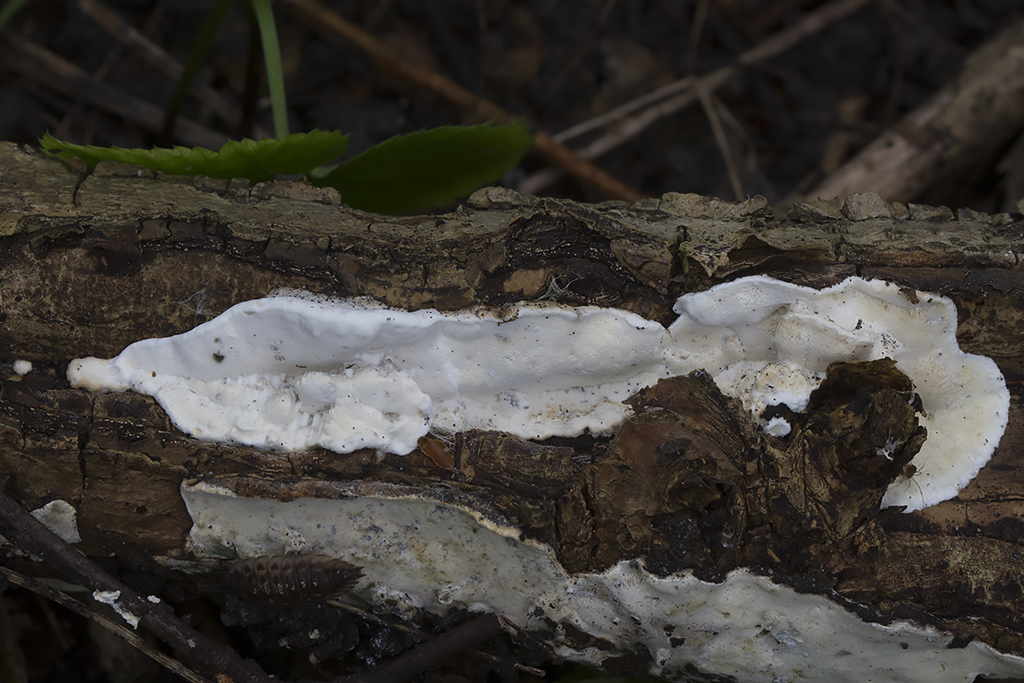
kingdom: Fungi
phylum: Basidiomycota
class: Agaricomycetes
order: Polyporales
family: Incrustoporiaceae
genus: Skeletocutis
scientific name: Skeletocutis nemoralis
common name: stor krystalporesvamp
